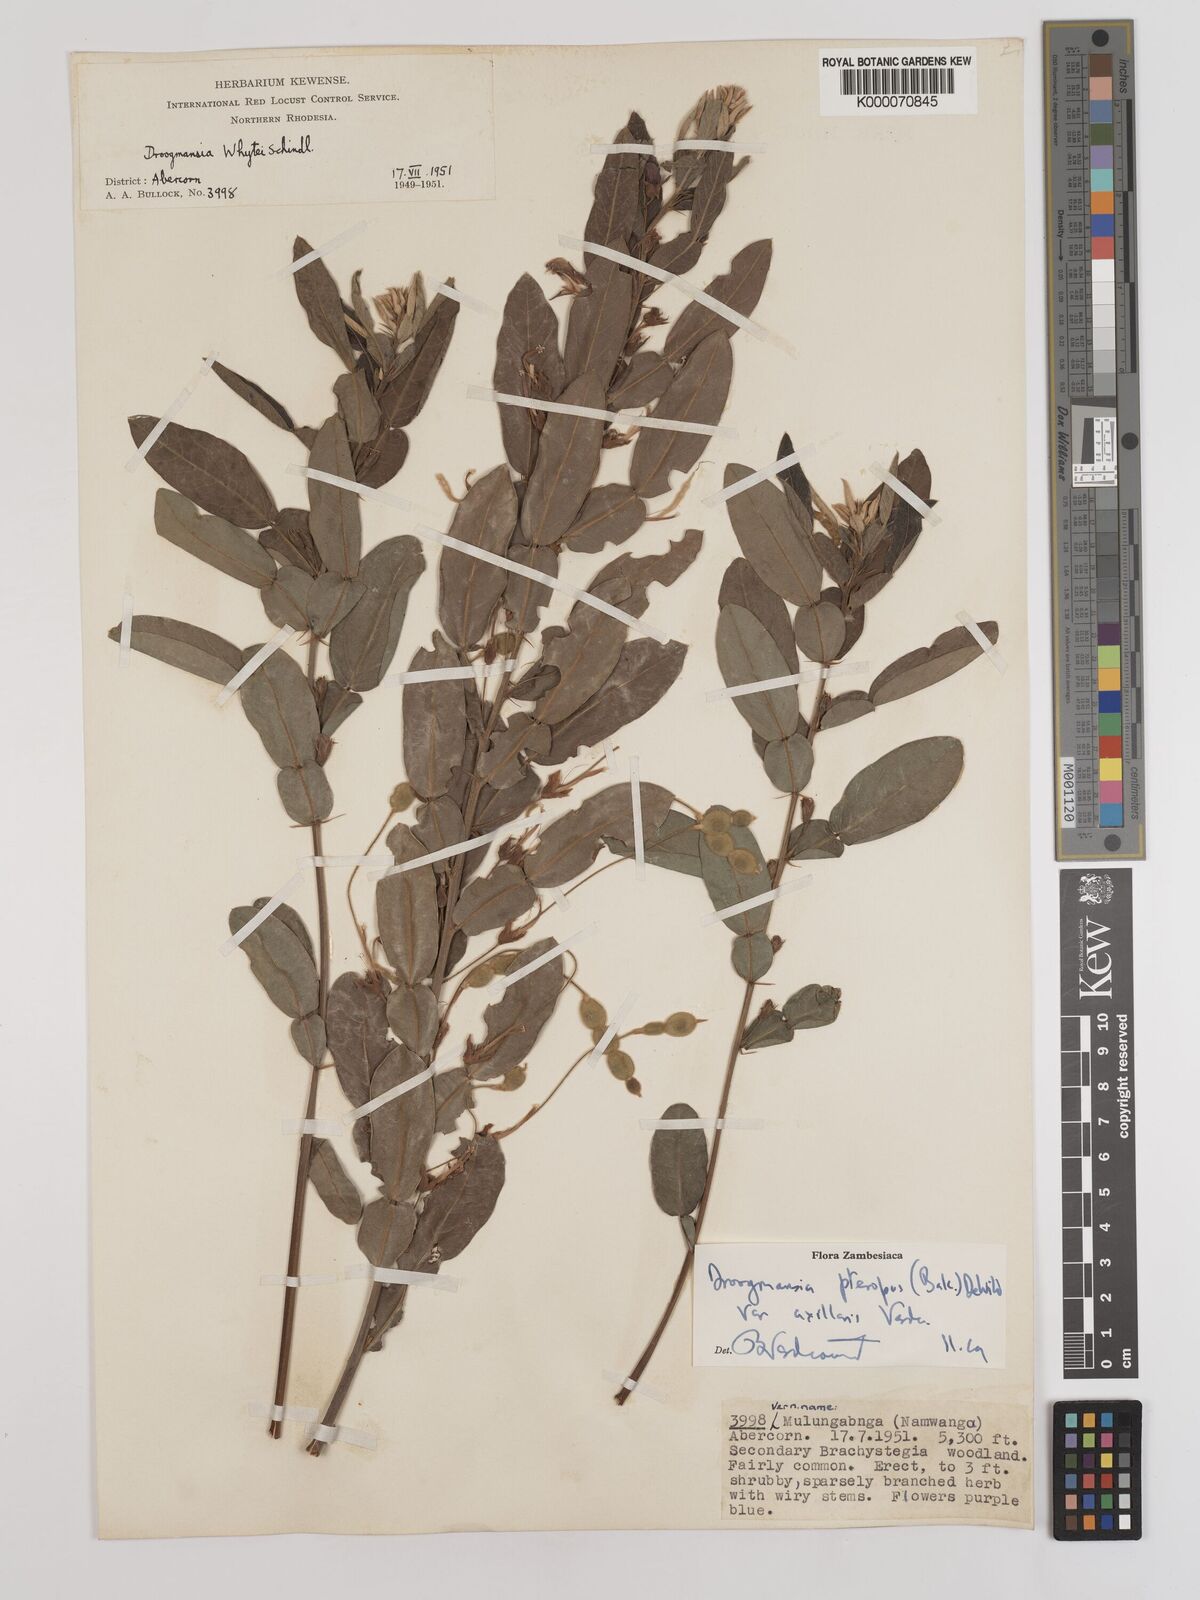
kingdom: Plantae
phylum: Tracheophyta
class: Magnoliopsida
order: Fabales
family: Fabaceae
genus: Droogmansia
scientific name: Droogmansia pteropus
